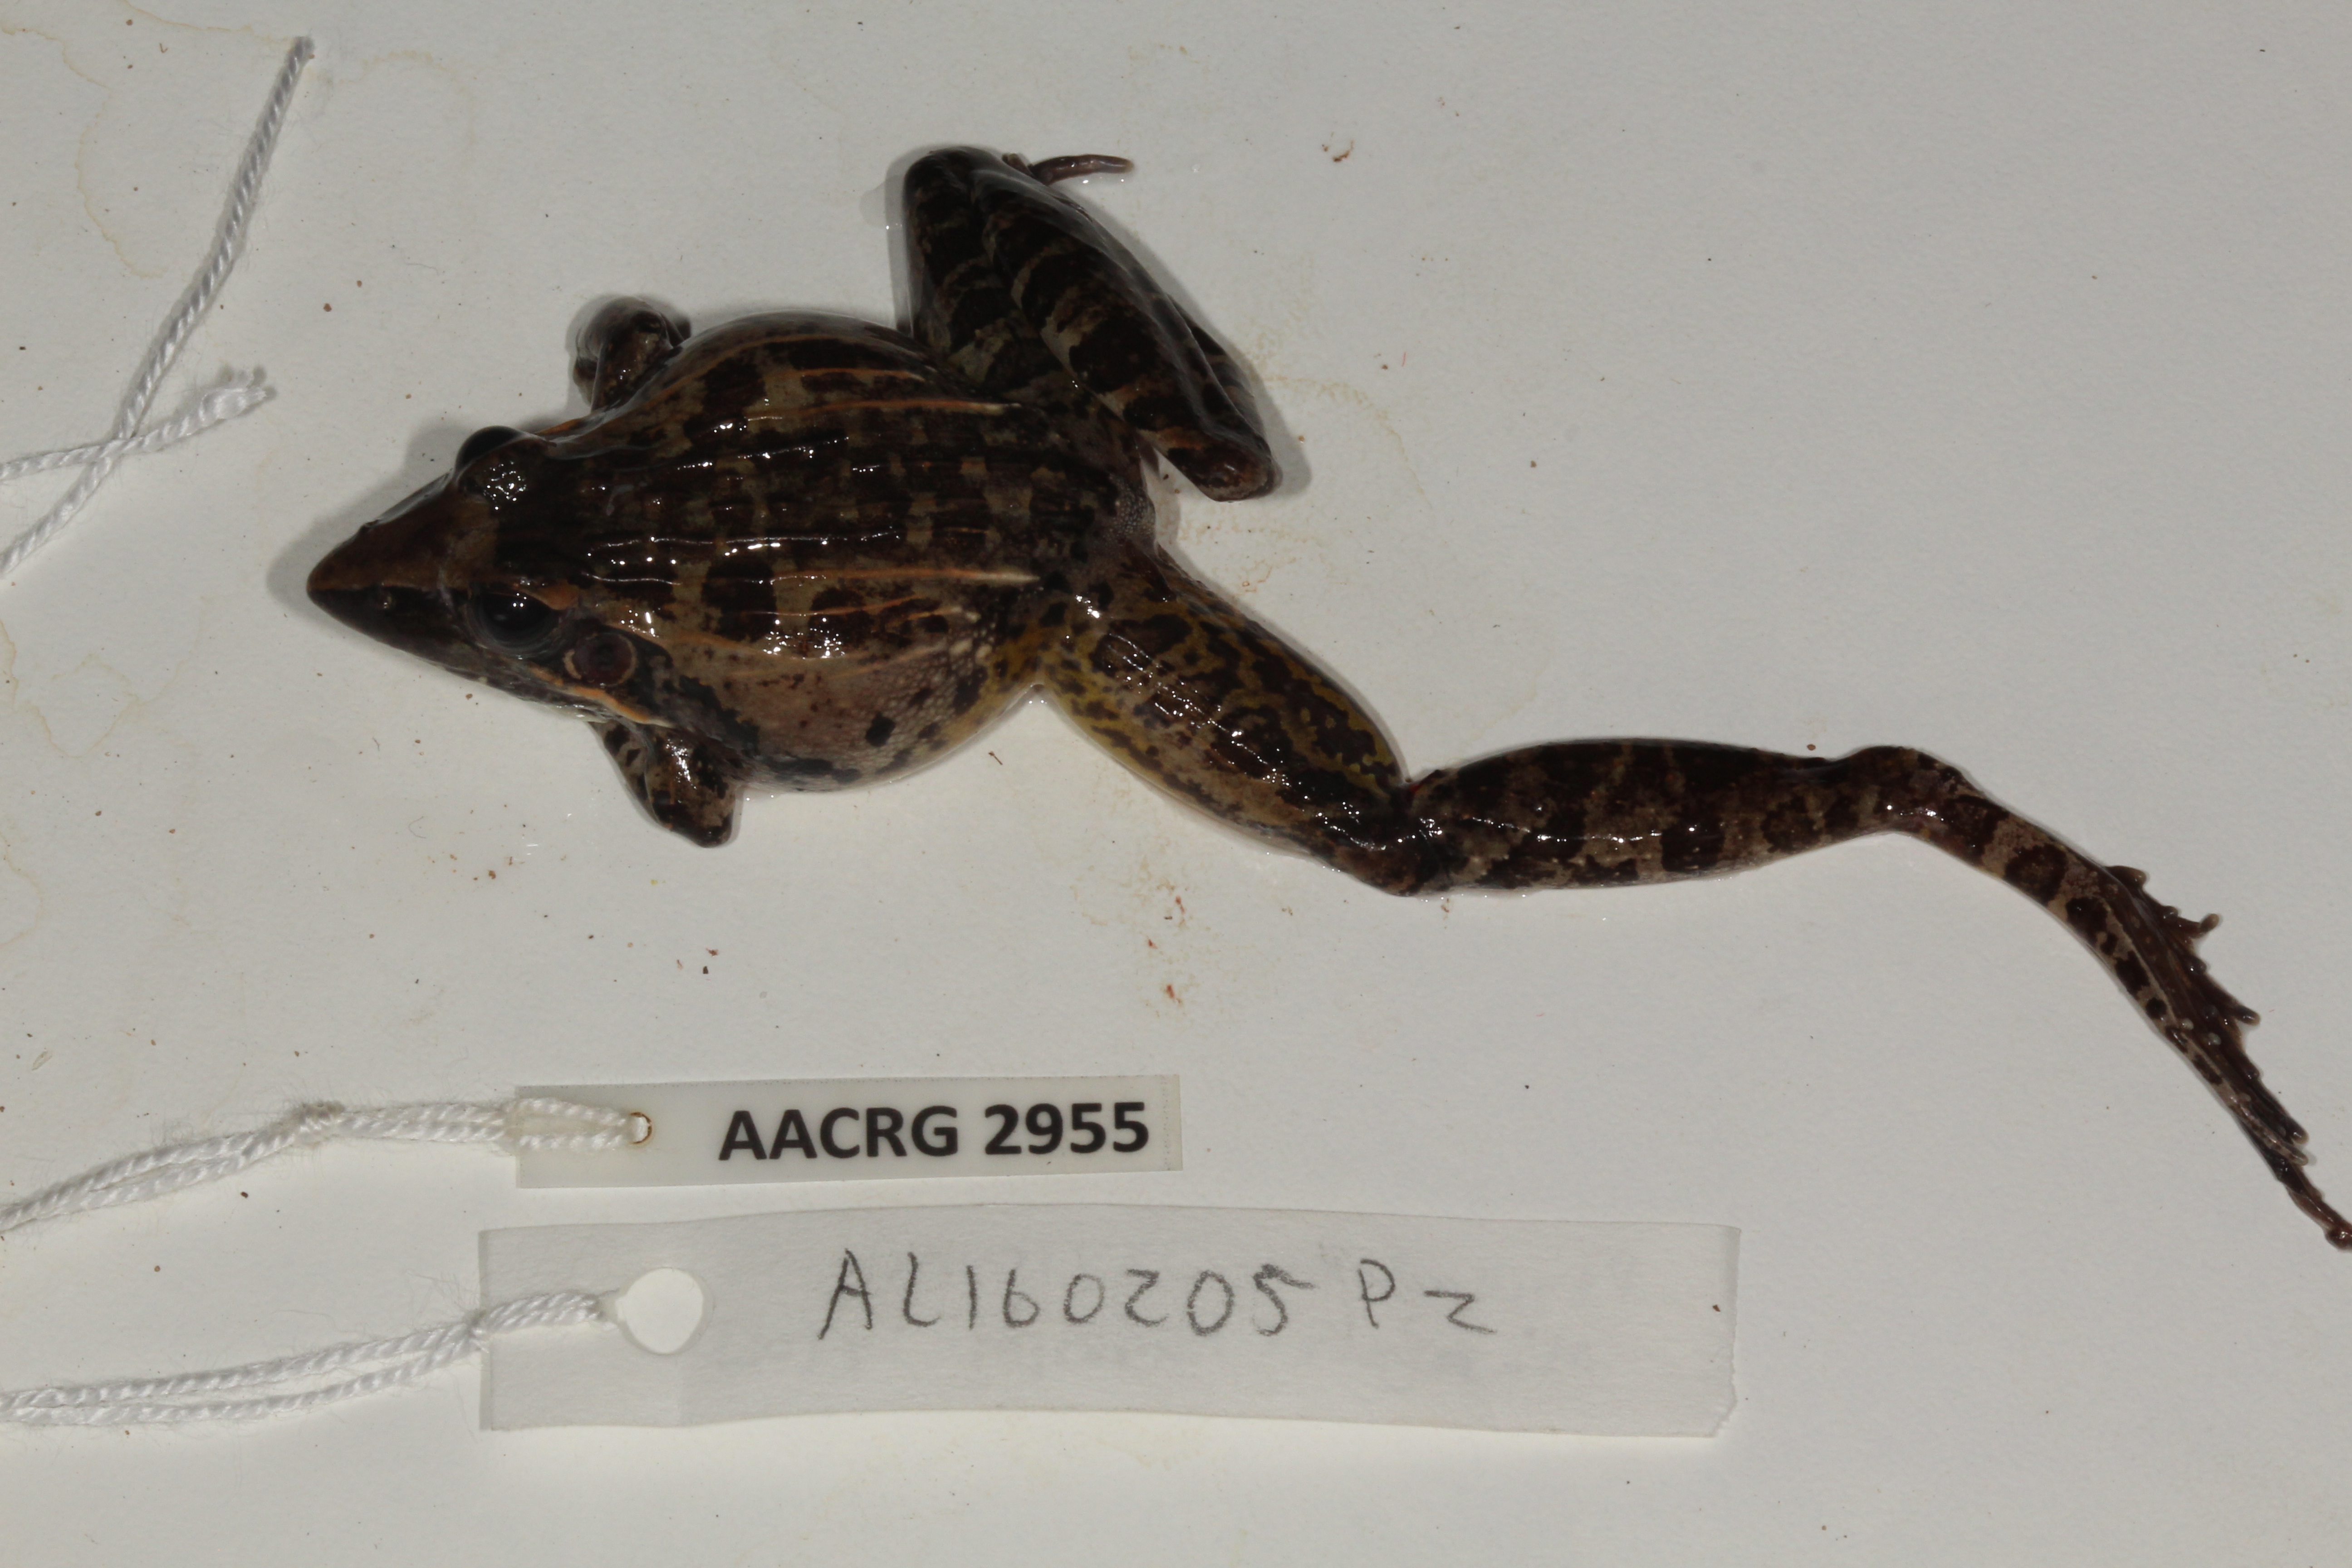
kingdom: Animalia
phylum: Chordata
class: Amphibia
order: Anura
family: Ptychadenidae
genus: Ptychadena
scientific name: Ptychadena oxyrhynchus
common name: Sharp-nosed ridged frog
